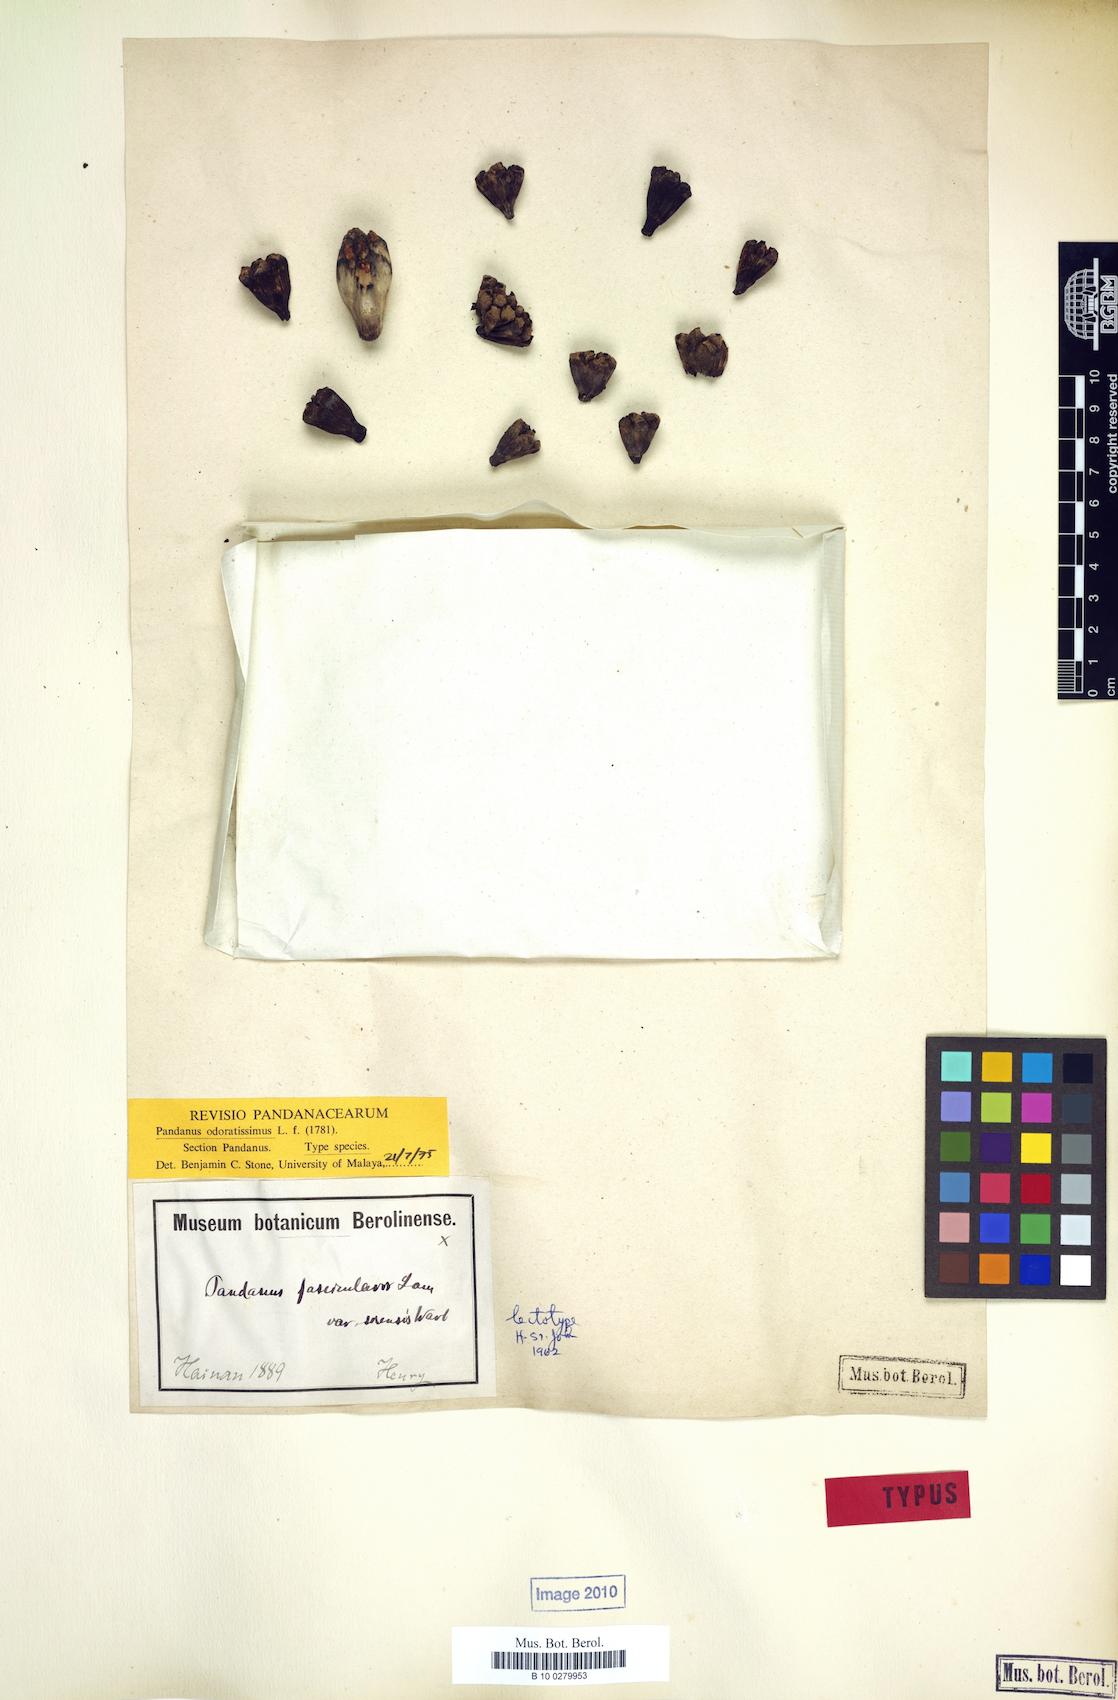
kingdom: Plantae
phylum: Tracheophyta
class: Liliopsida
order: Pandanales
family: Pandanaceae
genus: Pandanus
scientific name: Pandanus odorifer
